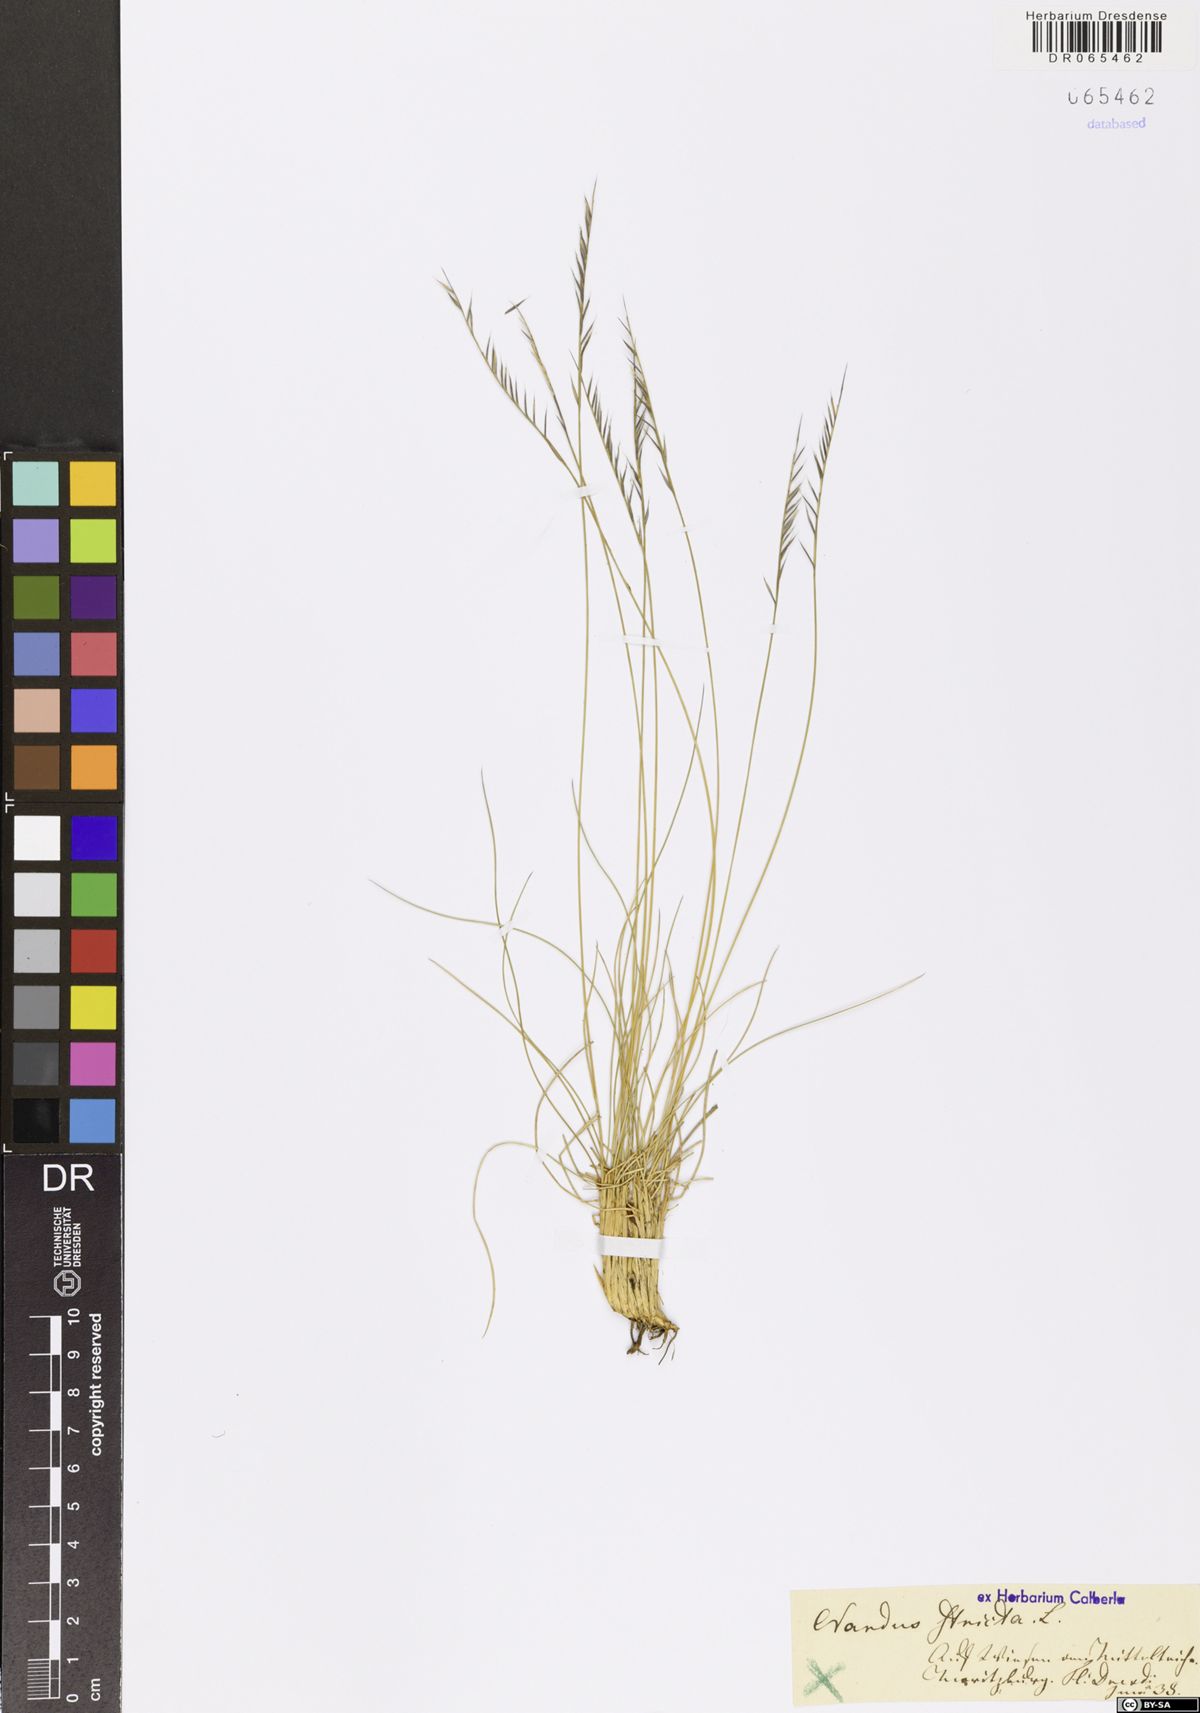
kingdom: Plantae
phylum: Tracheophyta
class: Liliopsida
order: Poales
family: Poaceae
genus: Nardus
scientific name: Nardus stricta
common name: Mat-grass
